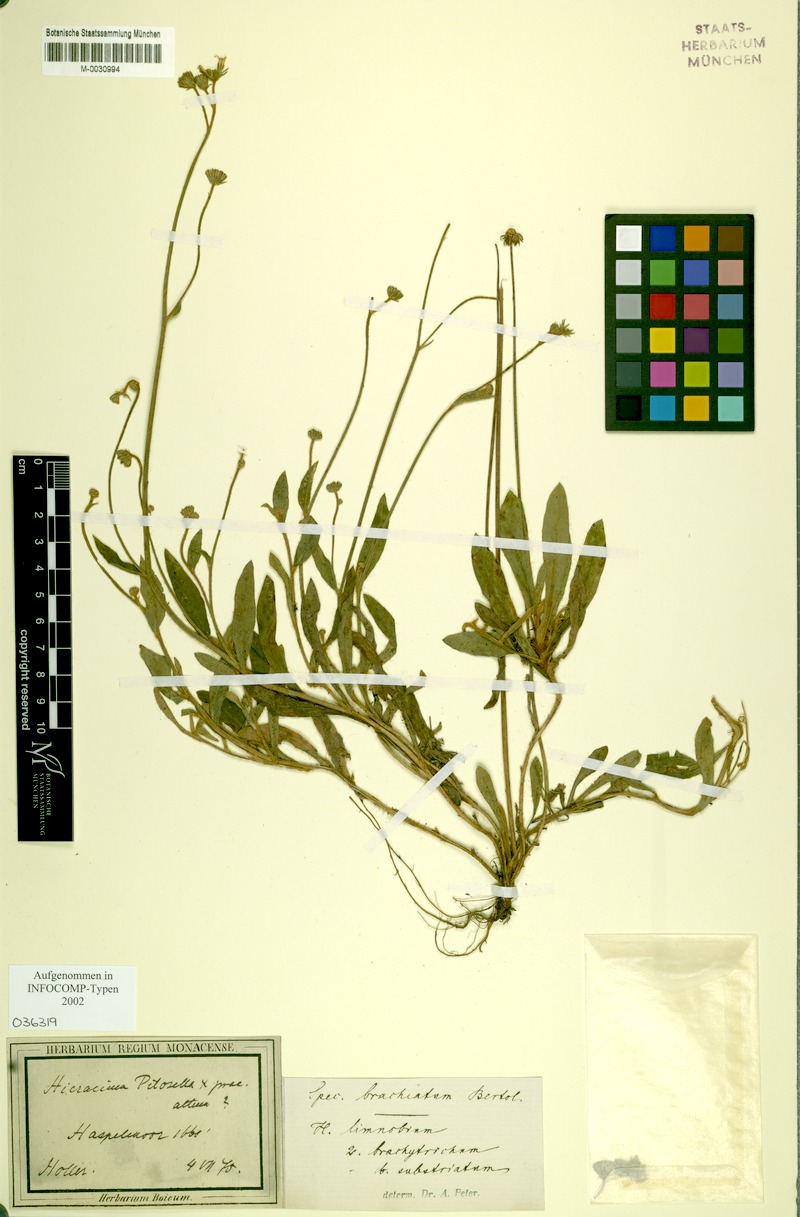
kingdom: Plantae
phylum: Tracheophyta
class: Magnoliopsida
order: Asterales
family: Asteraceae
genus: Pilosella
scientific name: Pilosella acutifolia
